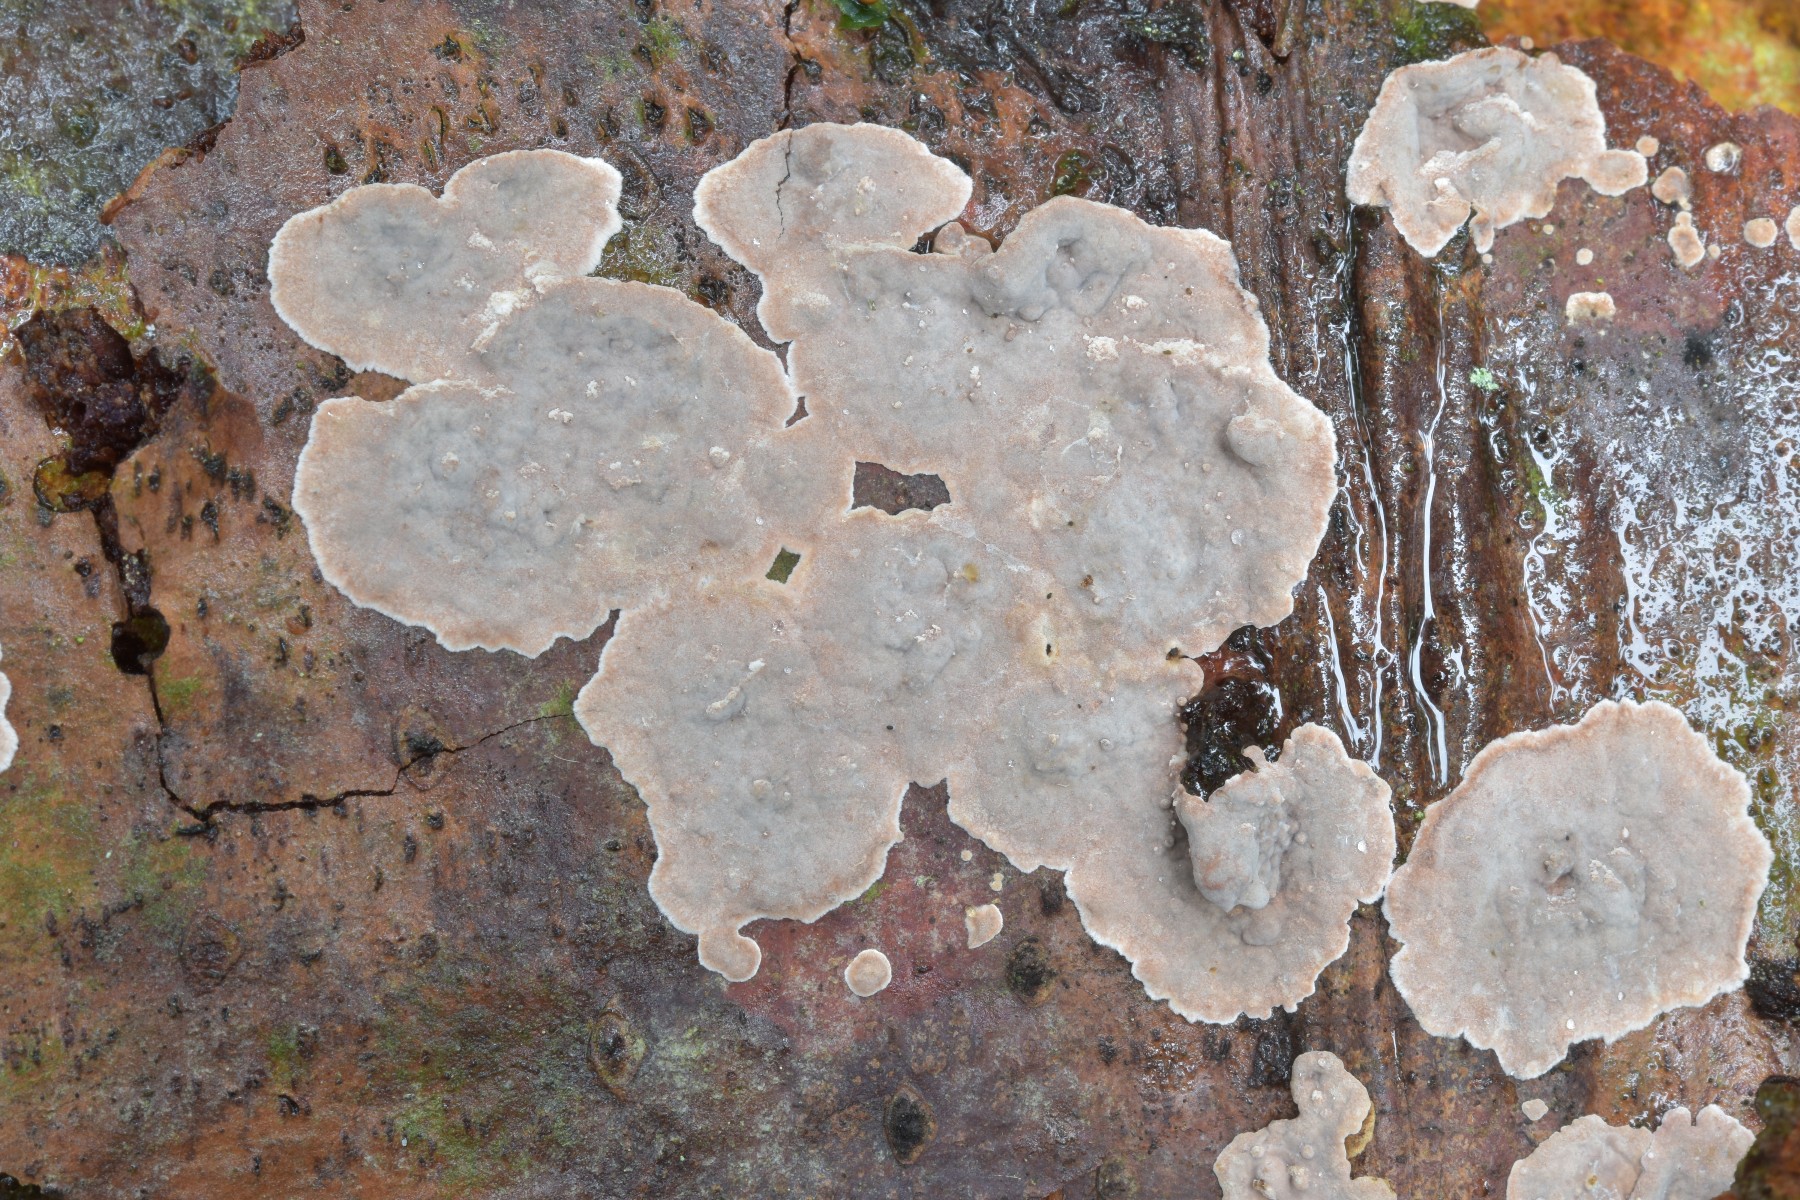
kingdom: Fungi
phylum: Basidiomycota
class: Agaricomycetes
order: Russulales
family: Echinodontiaceae
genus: Amylostereum
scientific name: Amylostereum chailletii
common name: gran-lædersvamp
